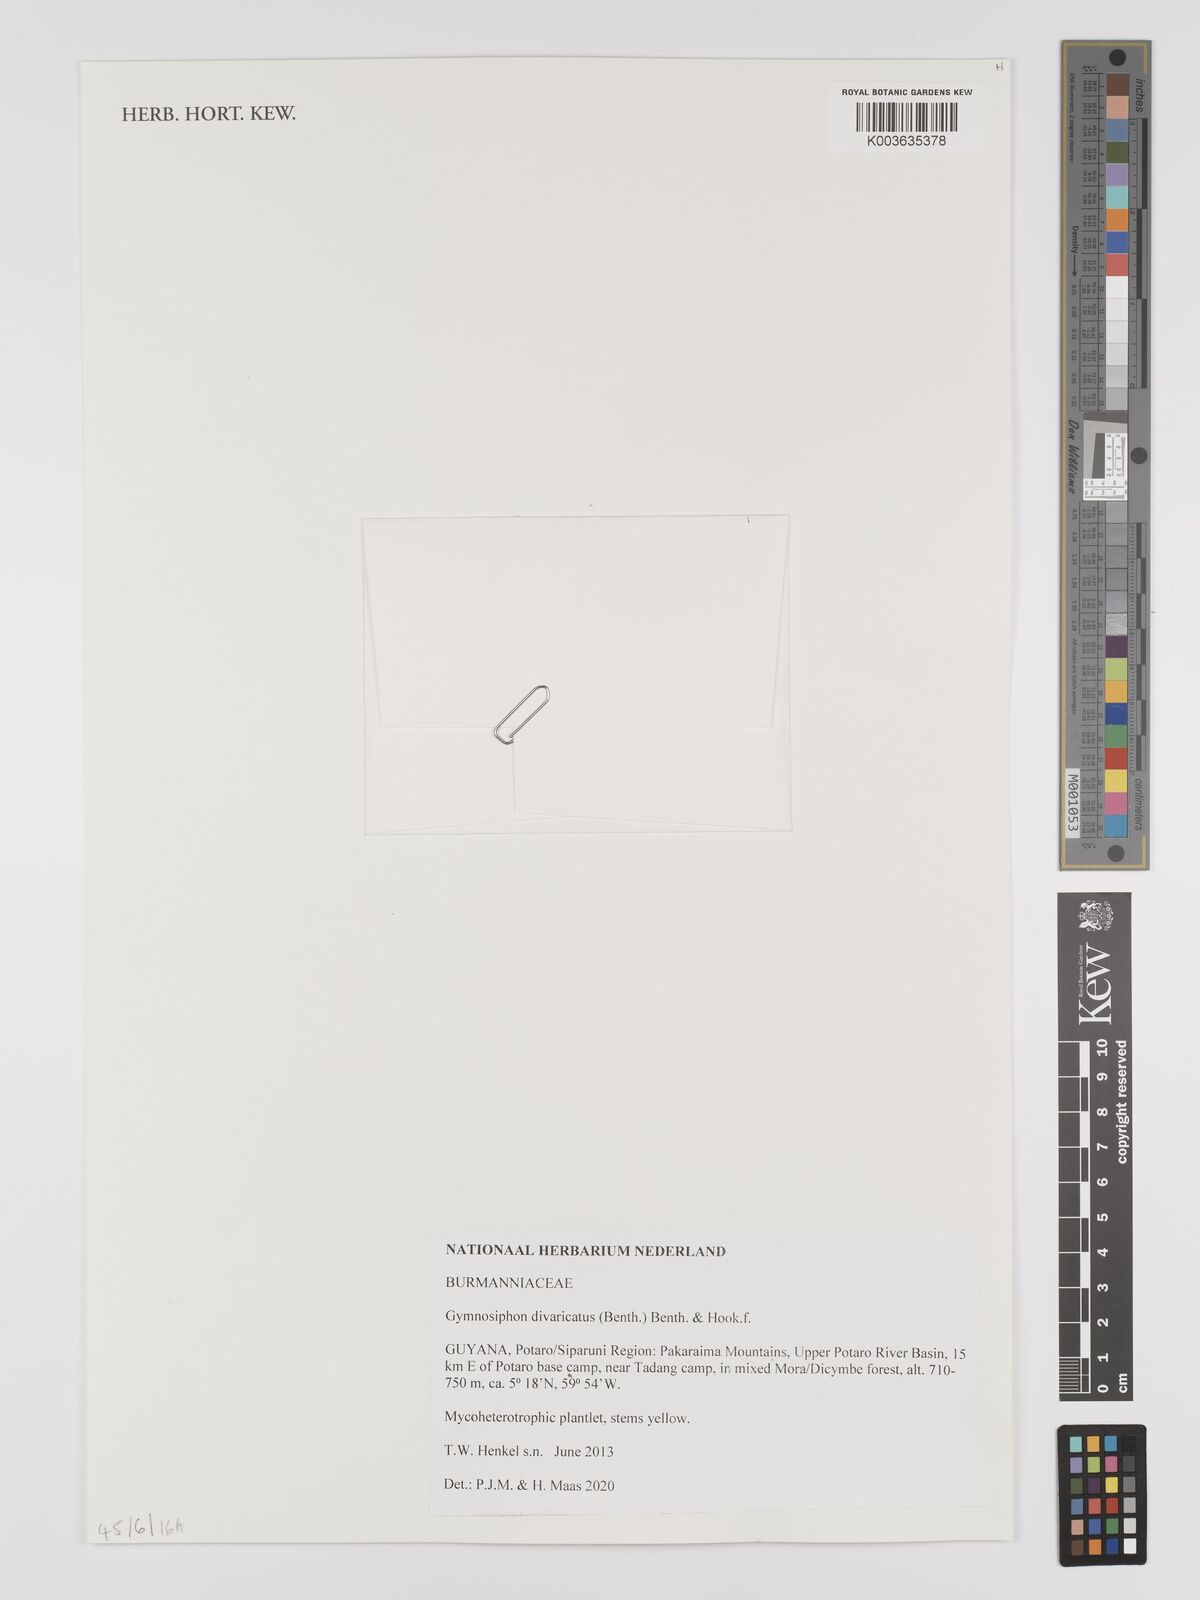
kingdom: Plantae
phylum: Tracheophyta
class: Liliopsida
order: Dioscoreales
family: Burmanniaceae
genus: Gymnosiphon
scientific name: Gymnosiphon divaricatus
